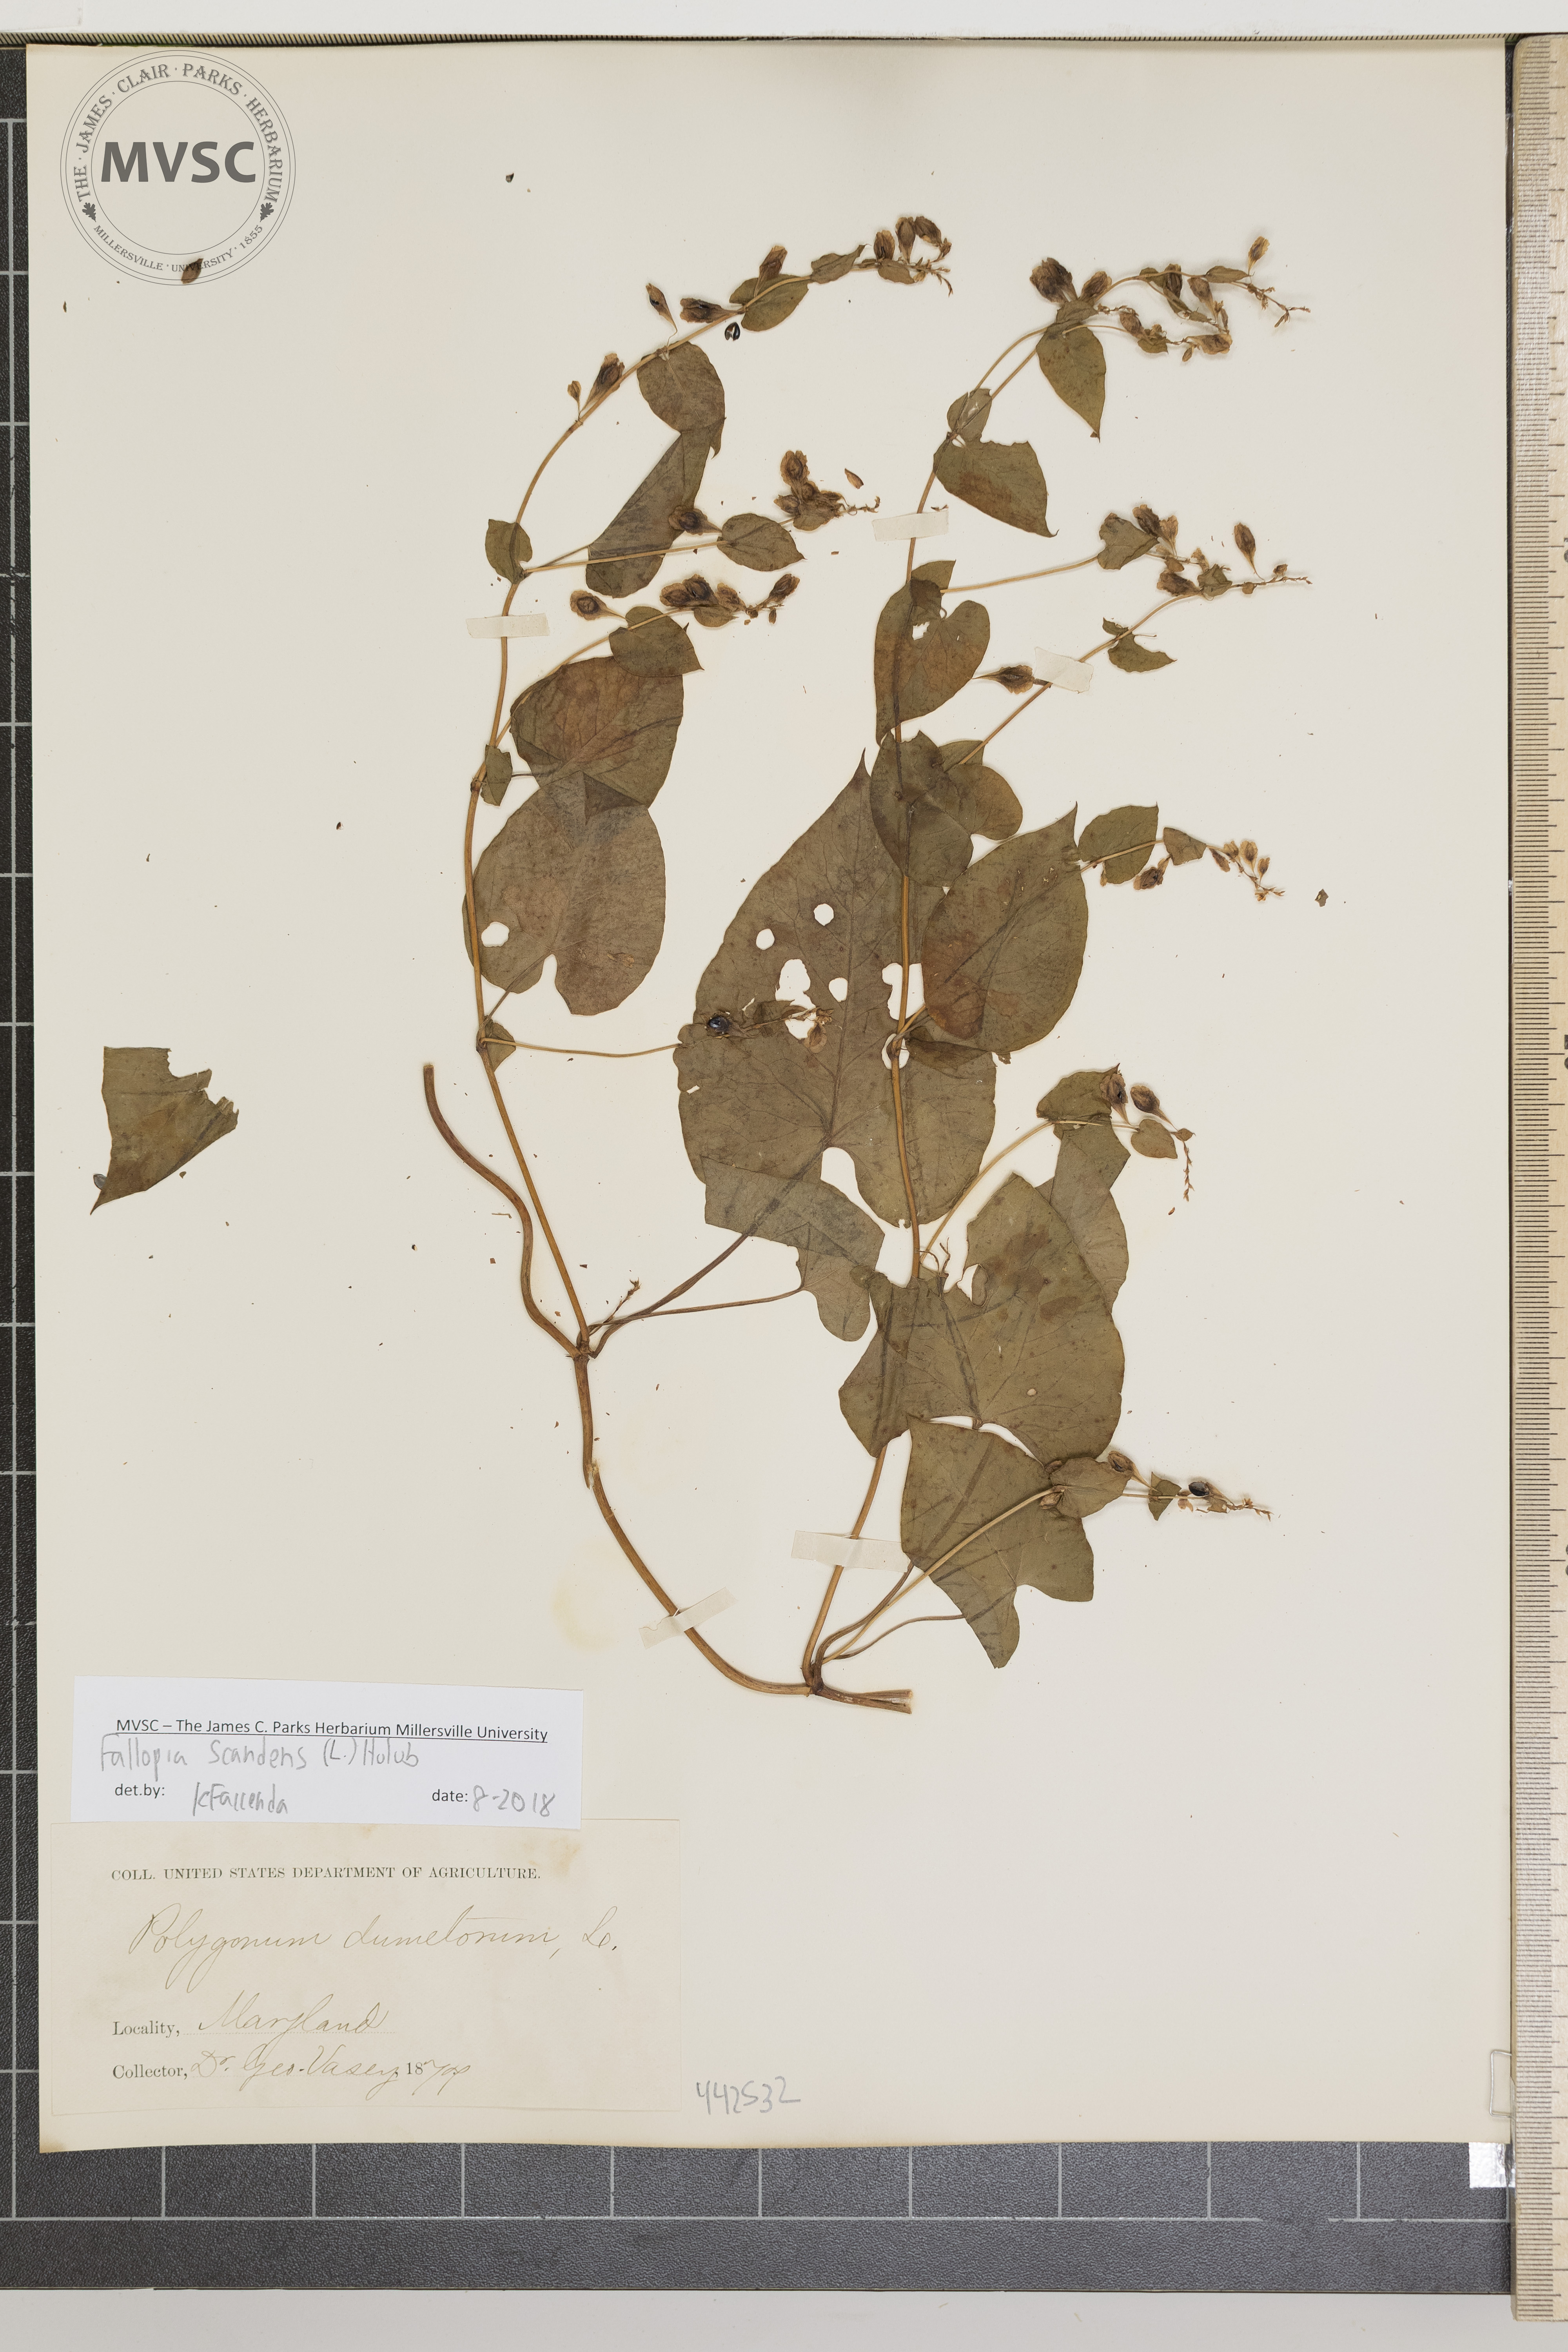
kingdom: Plantae
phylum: Tracheophyta
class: Magnoliopsida
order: Caryophyllales
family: Polygonaceae
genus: Fallopia
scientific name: Fallopia scandens
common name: Climbing false buckwheat
